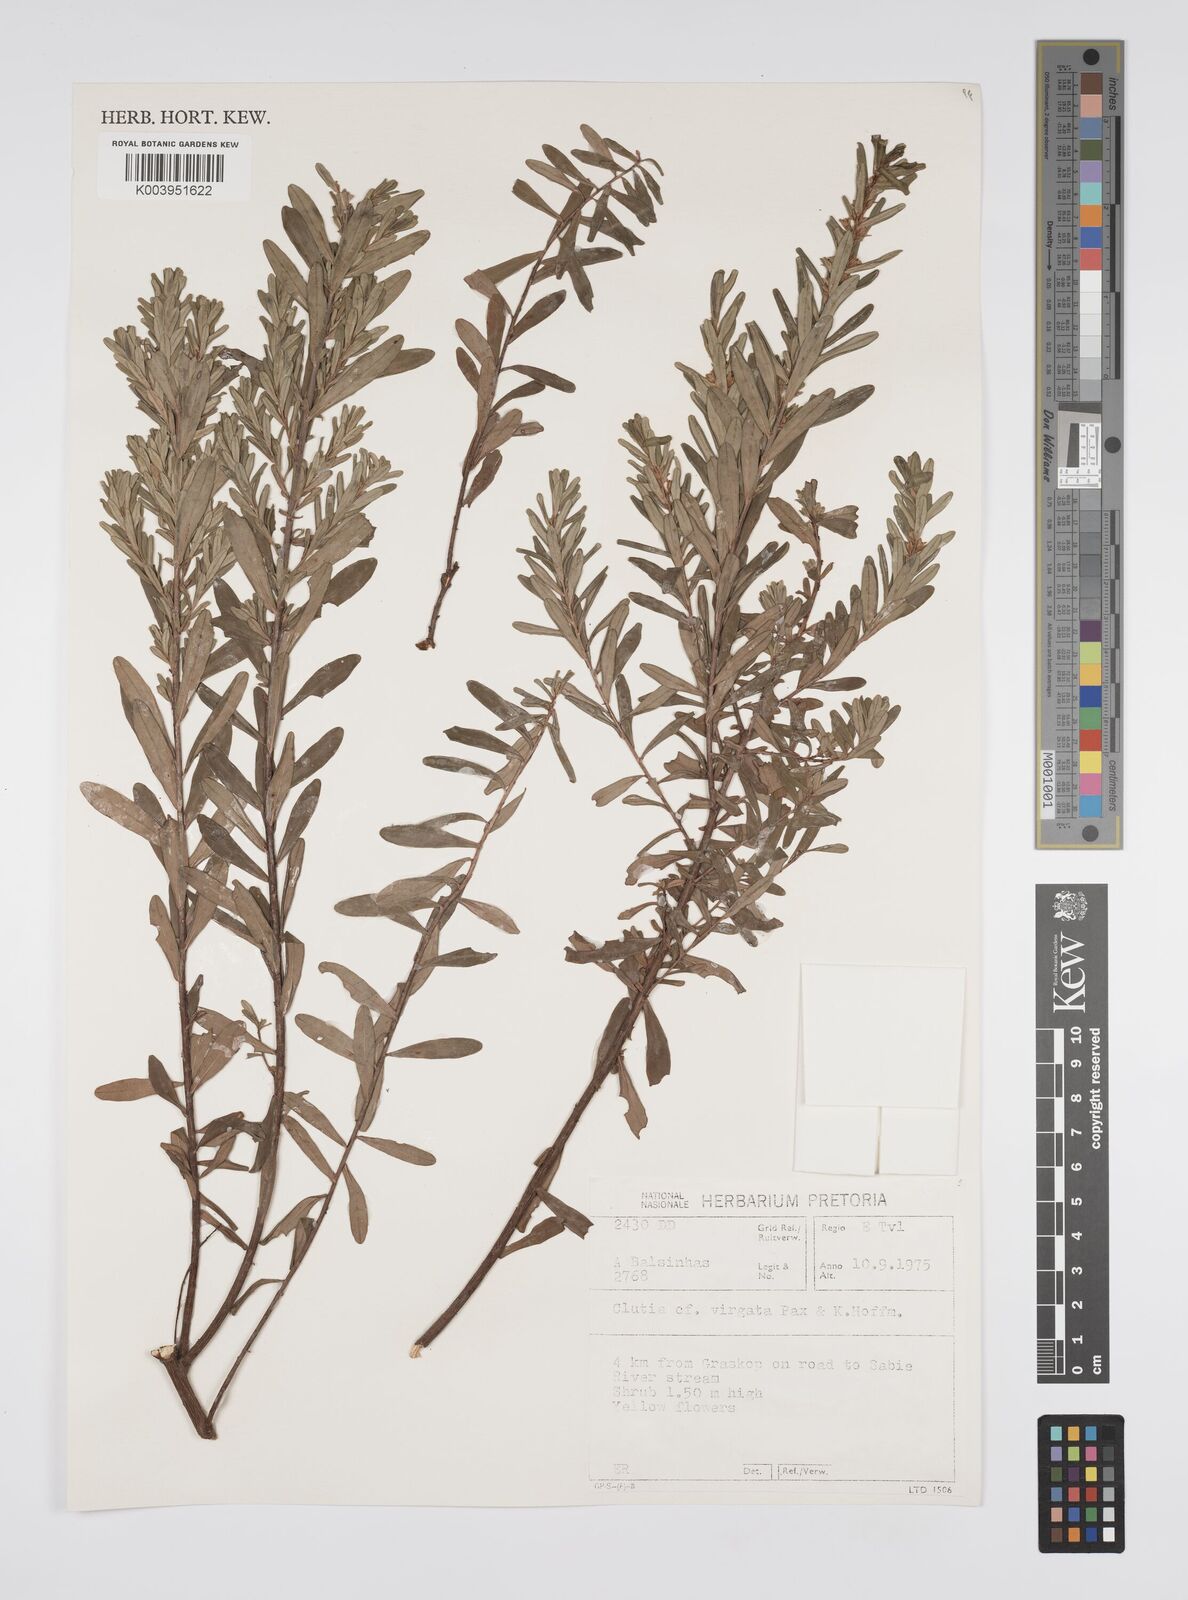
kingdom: Plantae
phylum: Tracheophyta
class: Magnoliopsida
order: Malpighiales
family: Peraceae
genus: Clutia
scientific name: Clutia virgata
